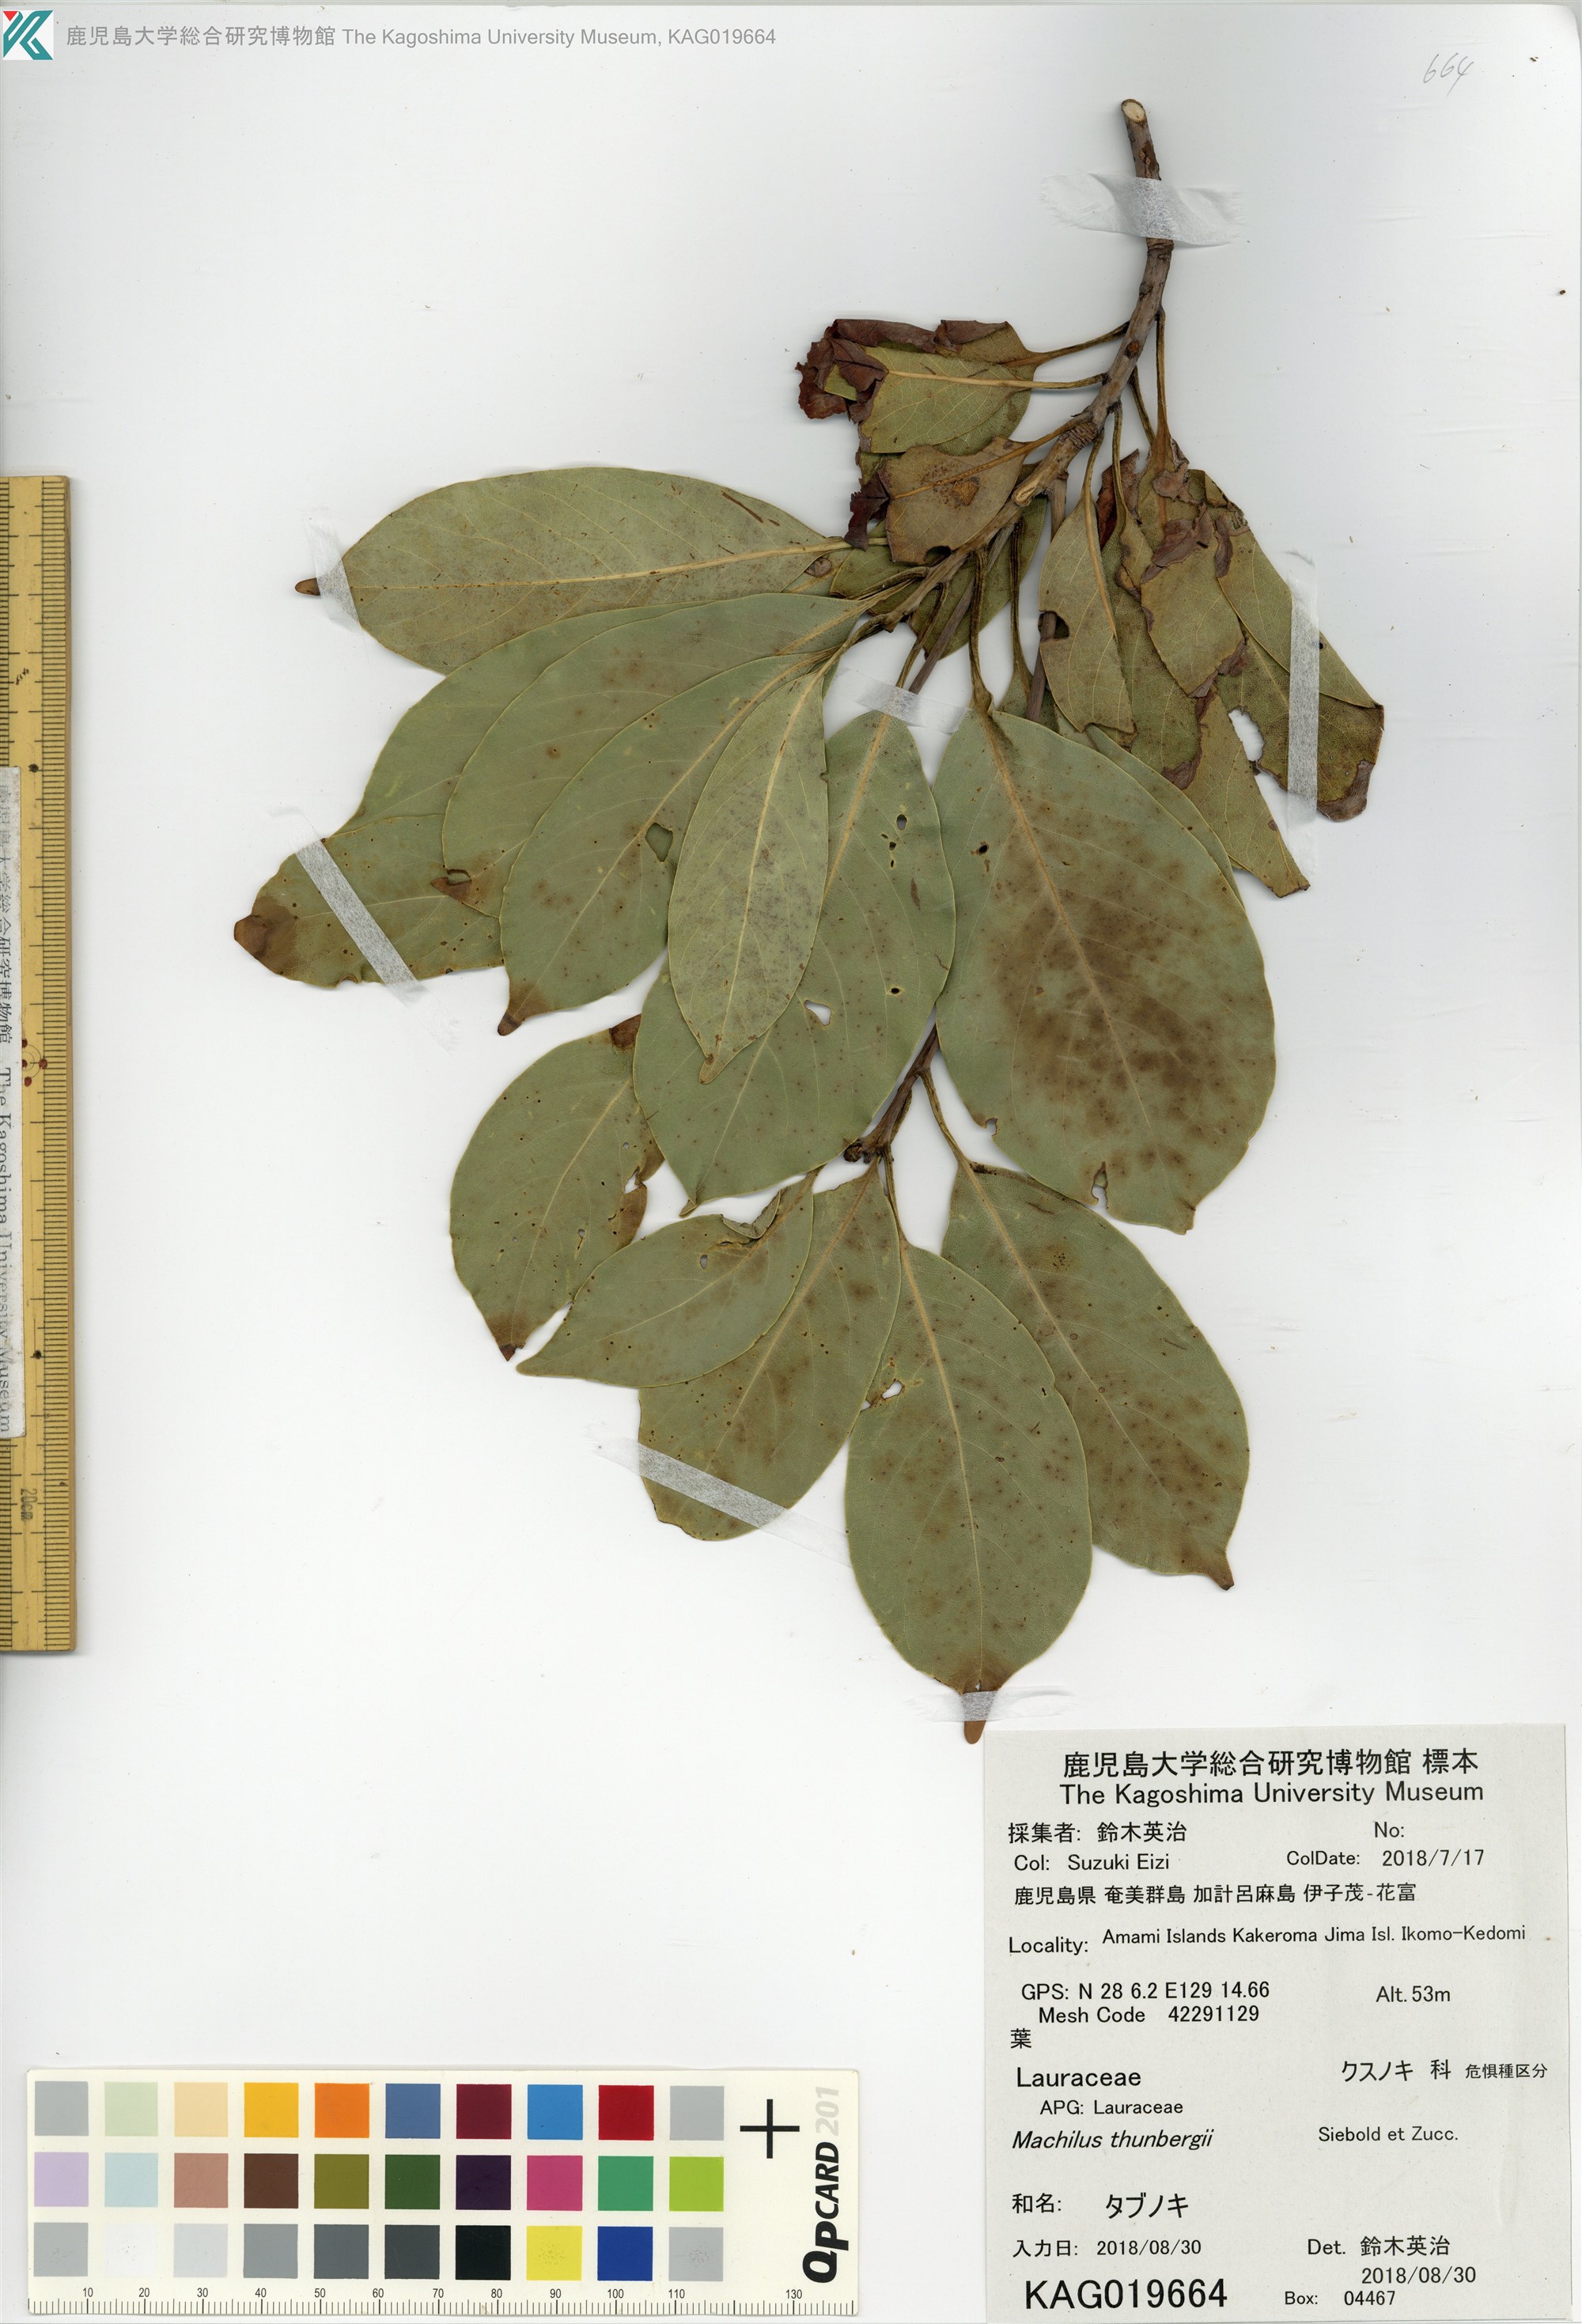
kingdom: Plantae
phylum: Tracheophyta
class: Magnoliopsida
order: Laurales
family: Lauraceae
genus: Machilus
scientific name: Machilus thunbergii
